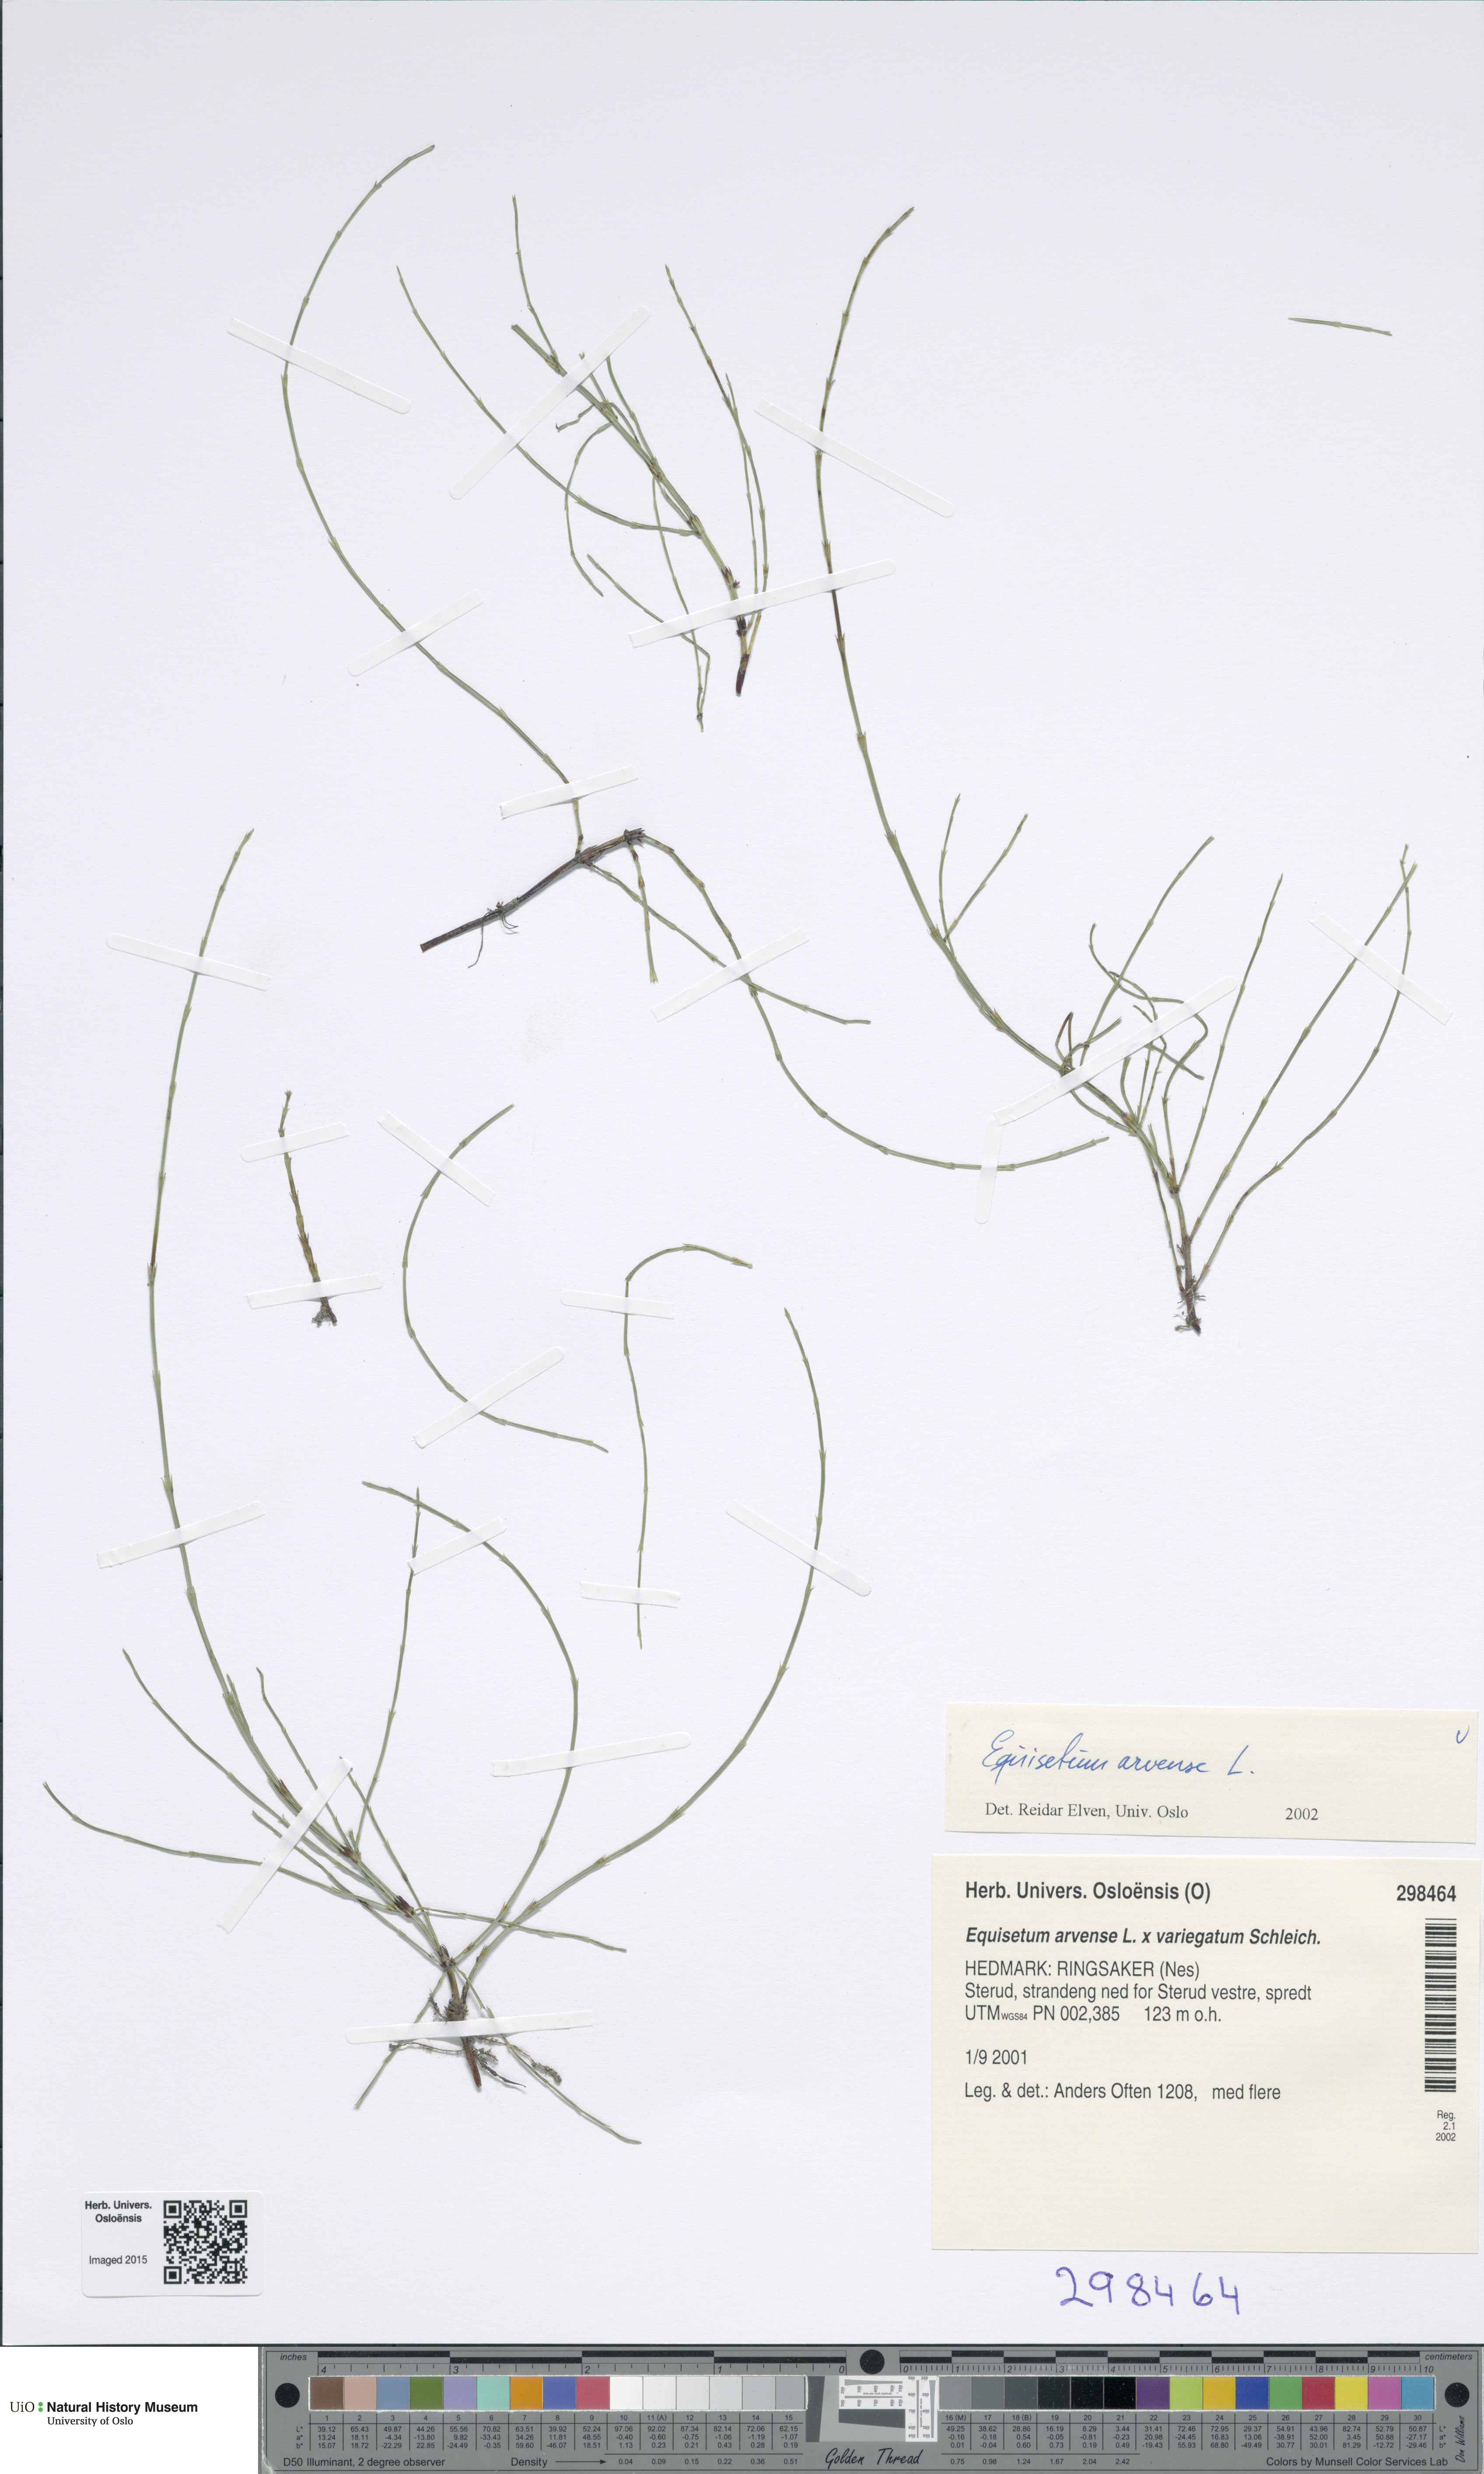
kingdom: Plantae
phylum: Tracheophyta
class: Polypodiopsida
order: Equisetales
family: Equisetaceae
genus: Equisetum
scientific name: Equisetum arvense
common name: Field horsetail
